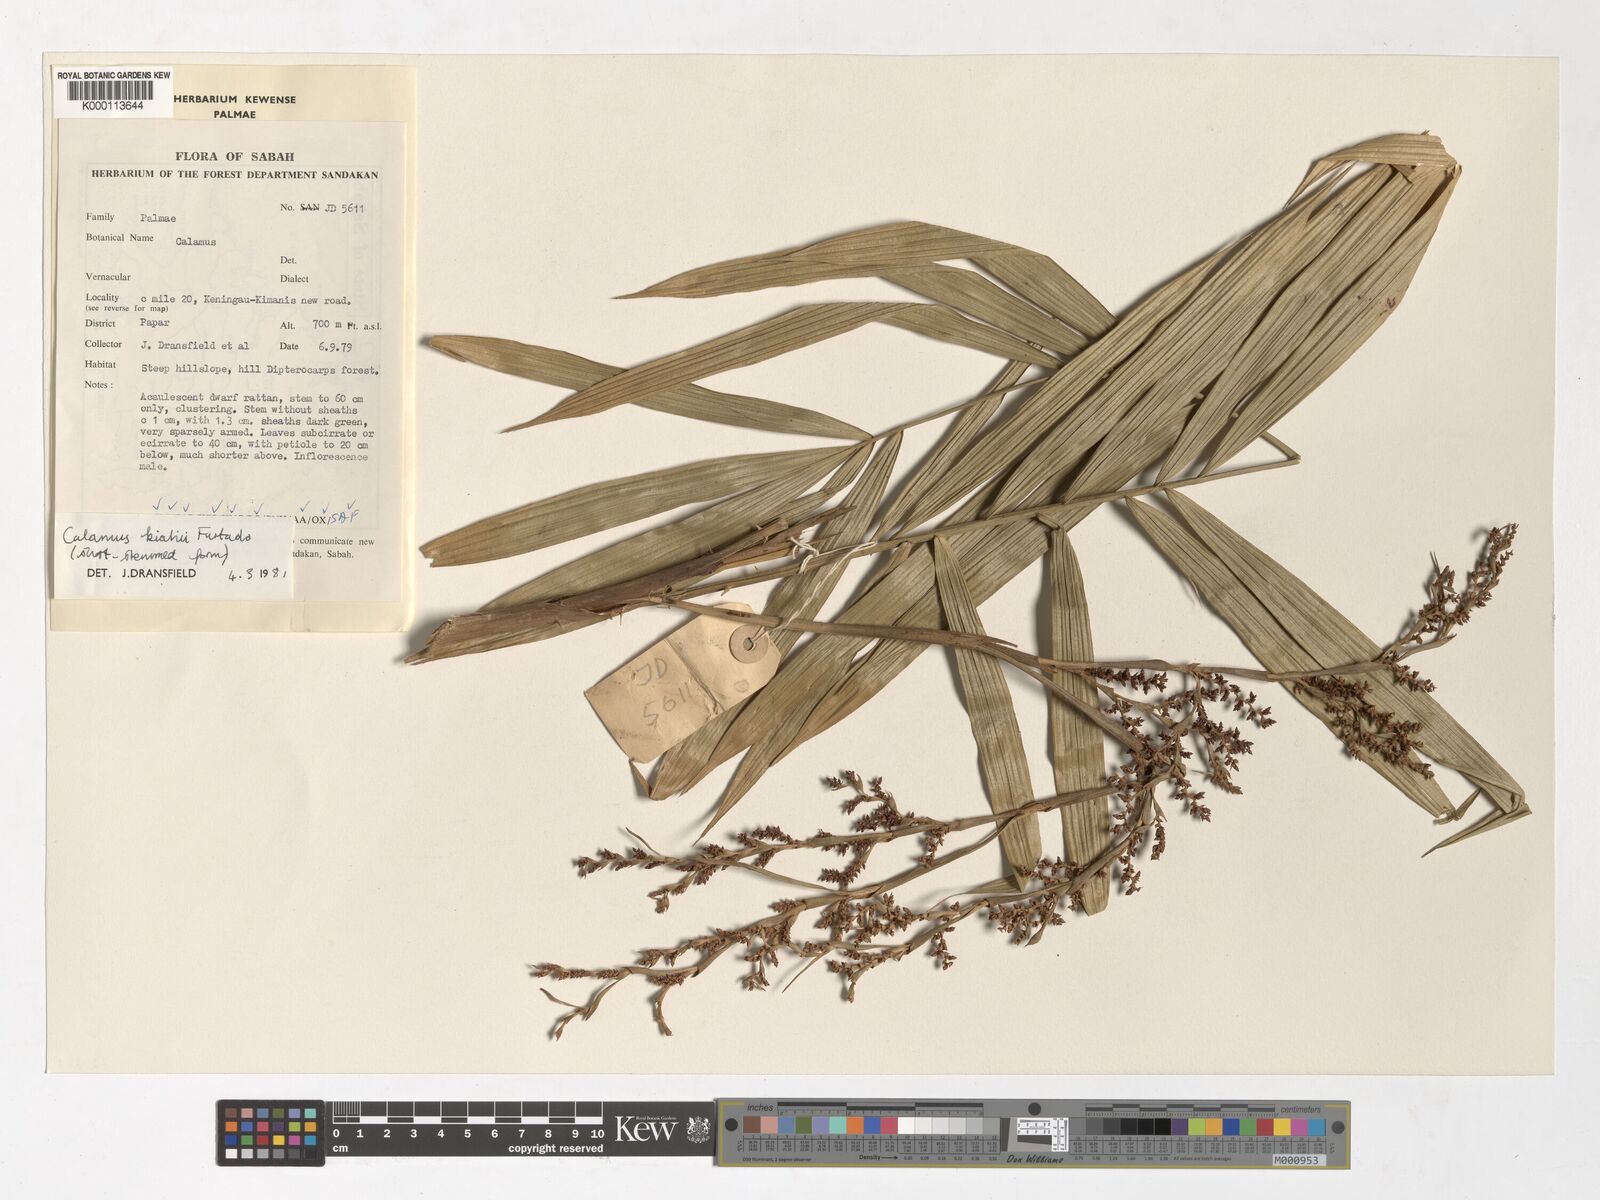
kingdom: Plantae
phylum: Tracheophyta
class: Liliopsida
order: Arecales
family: Arecaceae
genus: Calamus
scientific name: Calamus plicatus
